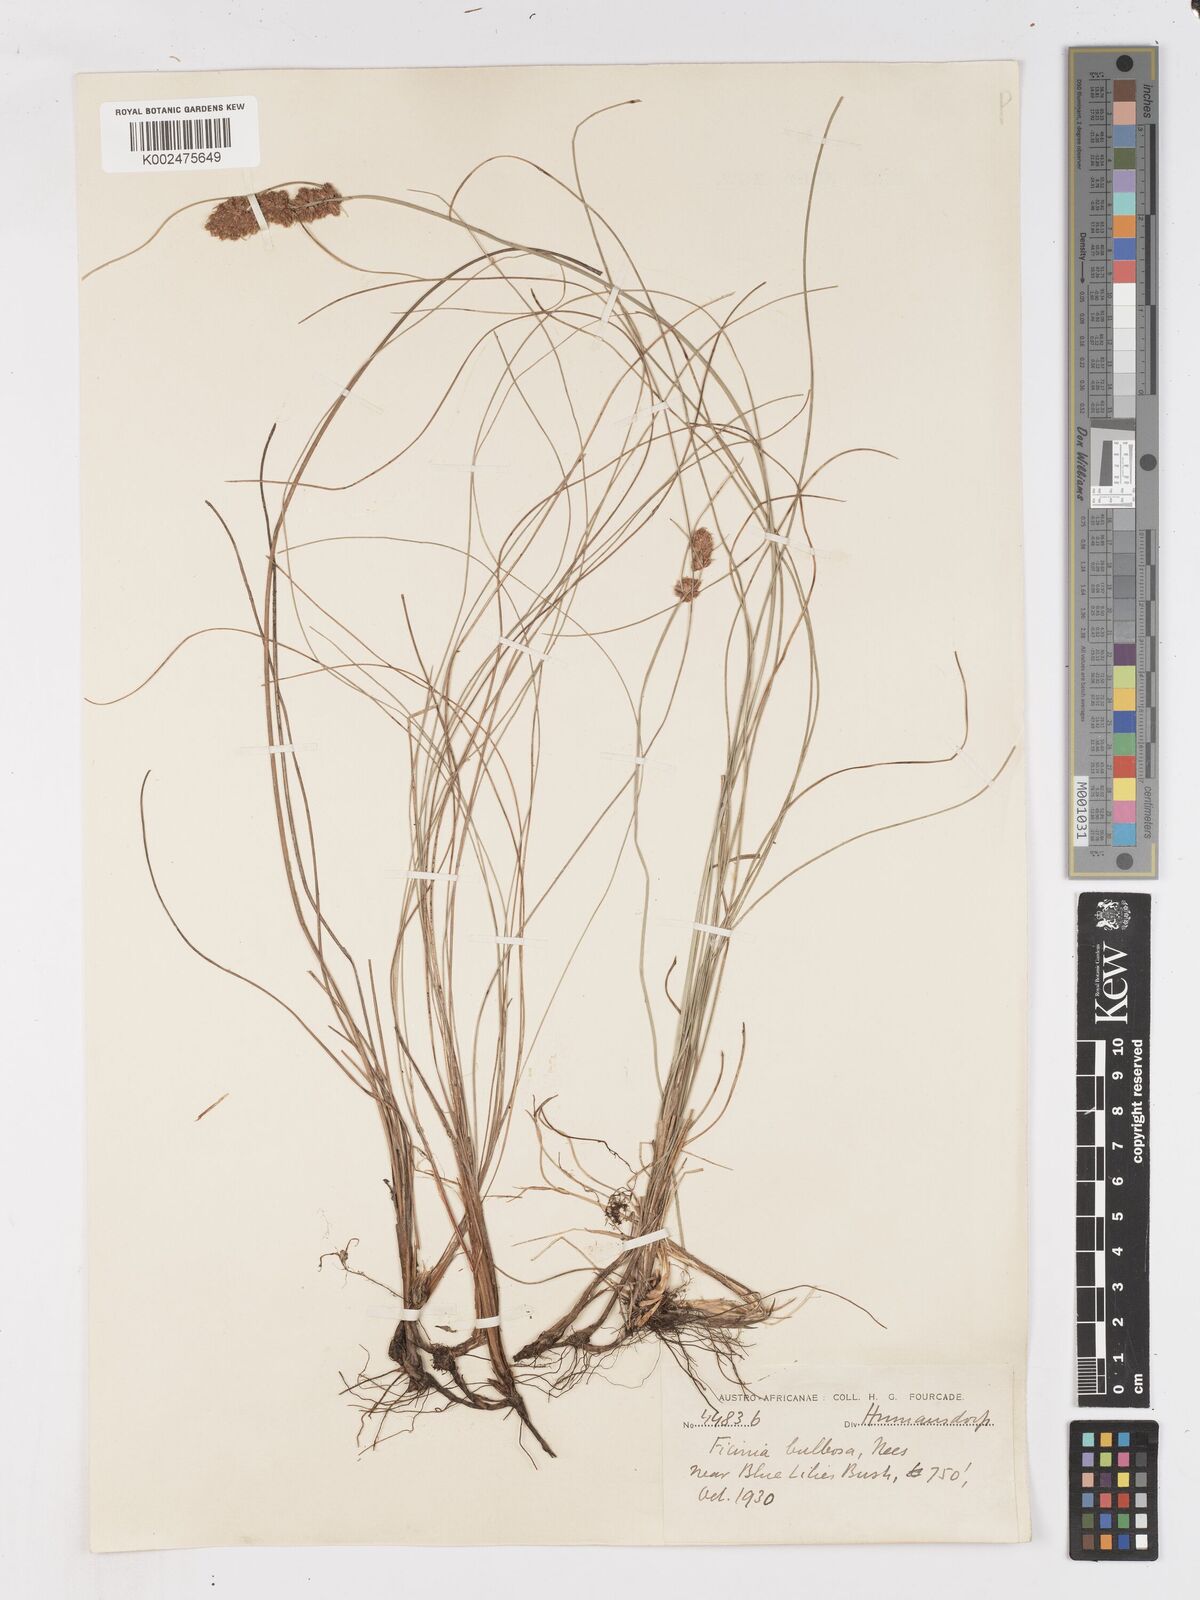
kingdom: Plantae
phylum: Tracheophyta
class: Liliopsida
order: Poales
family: Cyperaceae
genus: Ficinia
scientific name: Ficinia bulbosa
